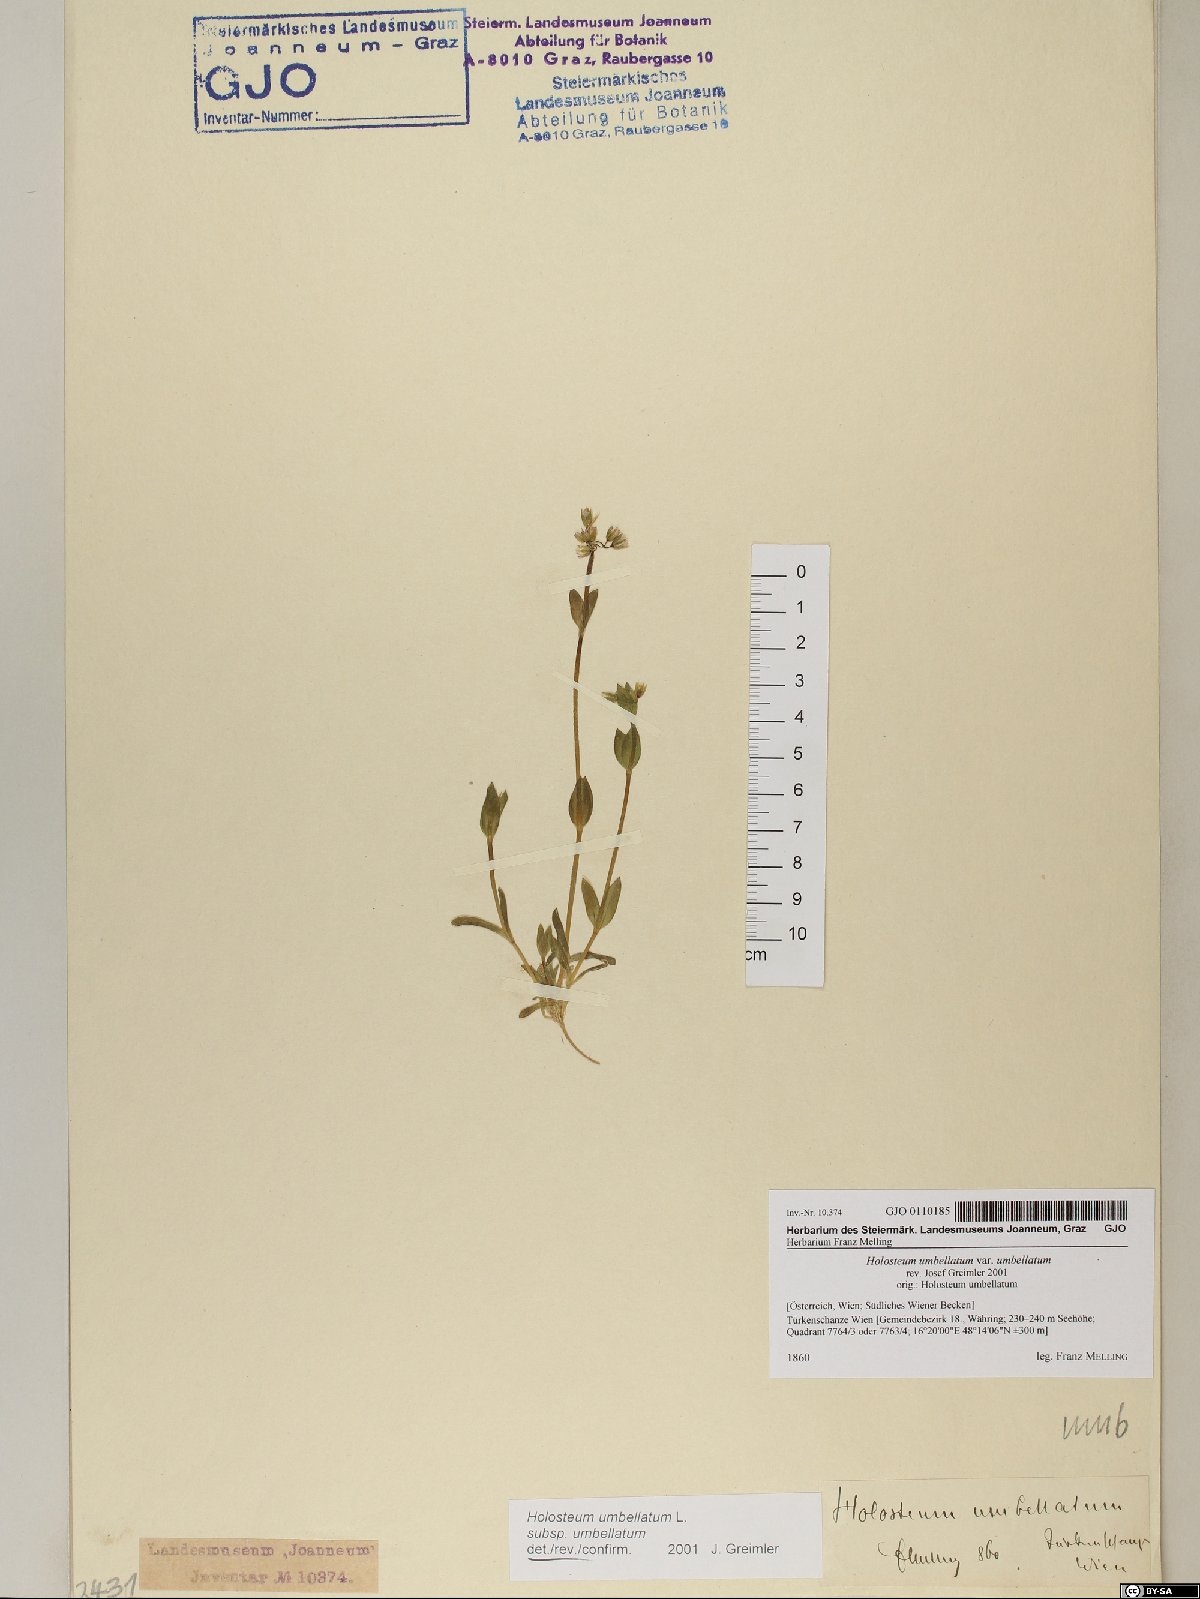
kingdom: Plantae
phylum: Tracheophyta
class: Magnoliopsida
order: Caryophyllales
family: Caryophyllaceae
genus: Holosteum
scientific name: Holosteum umbellatum
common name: Jagged chickweed
